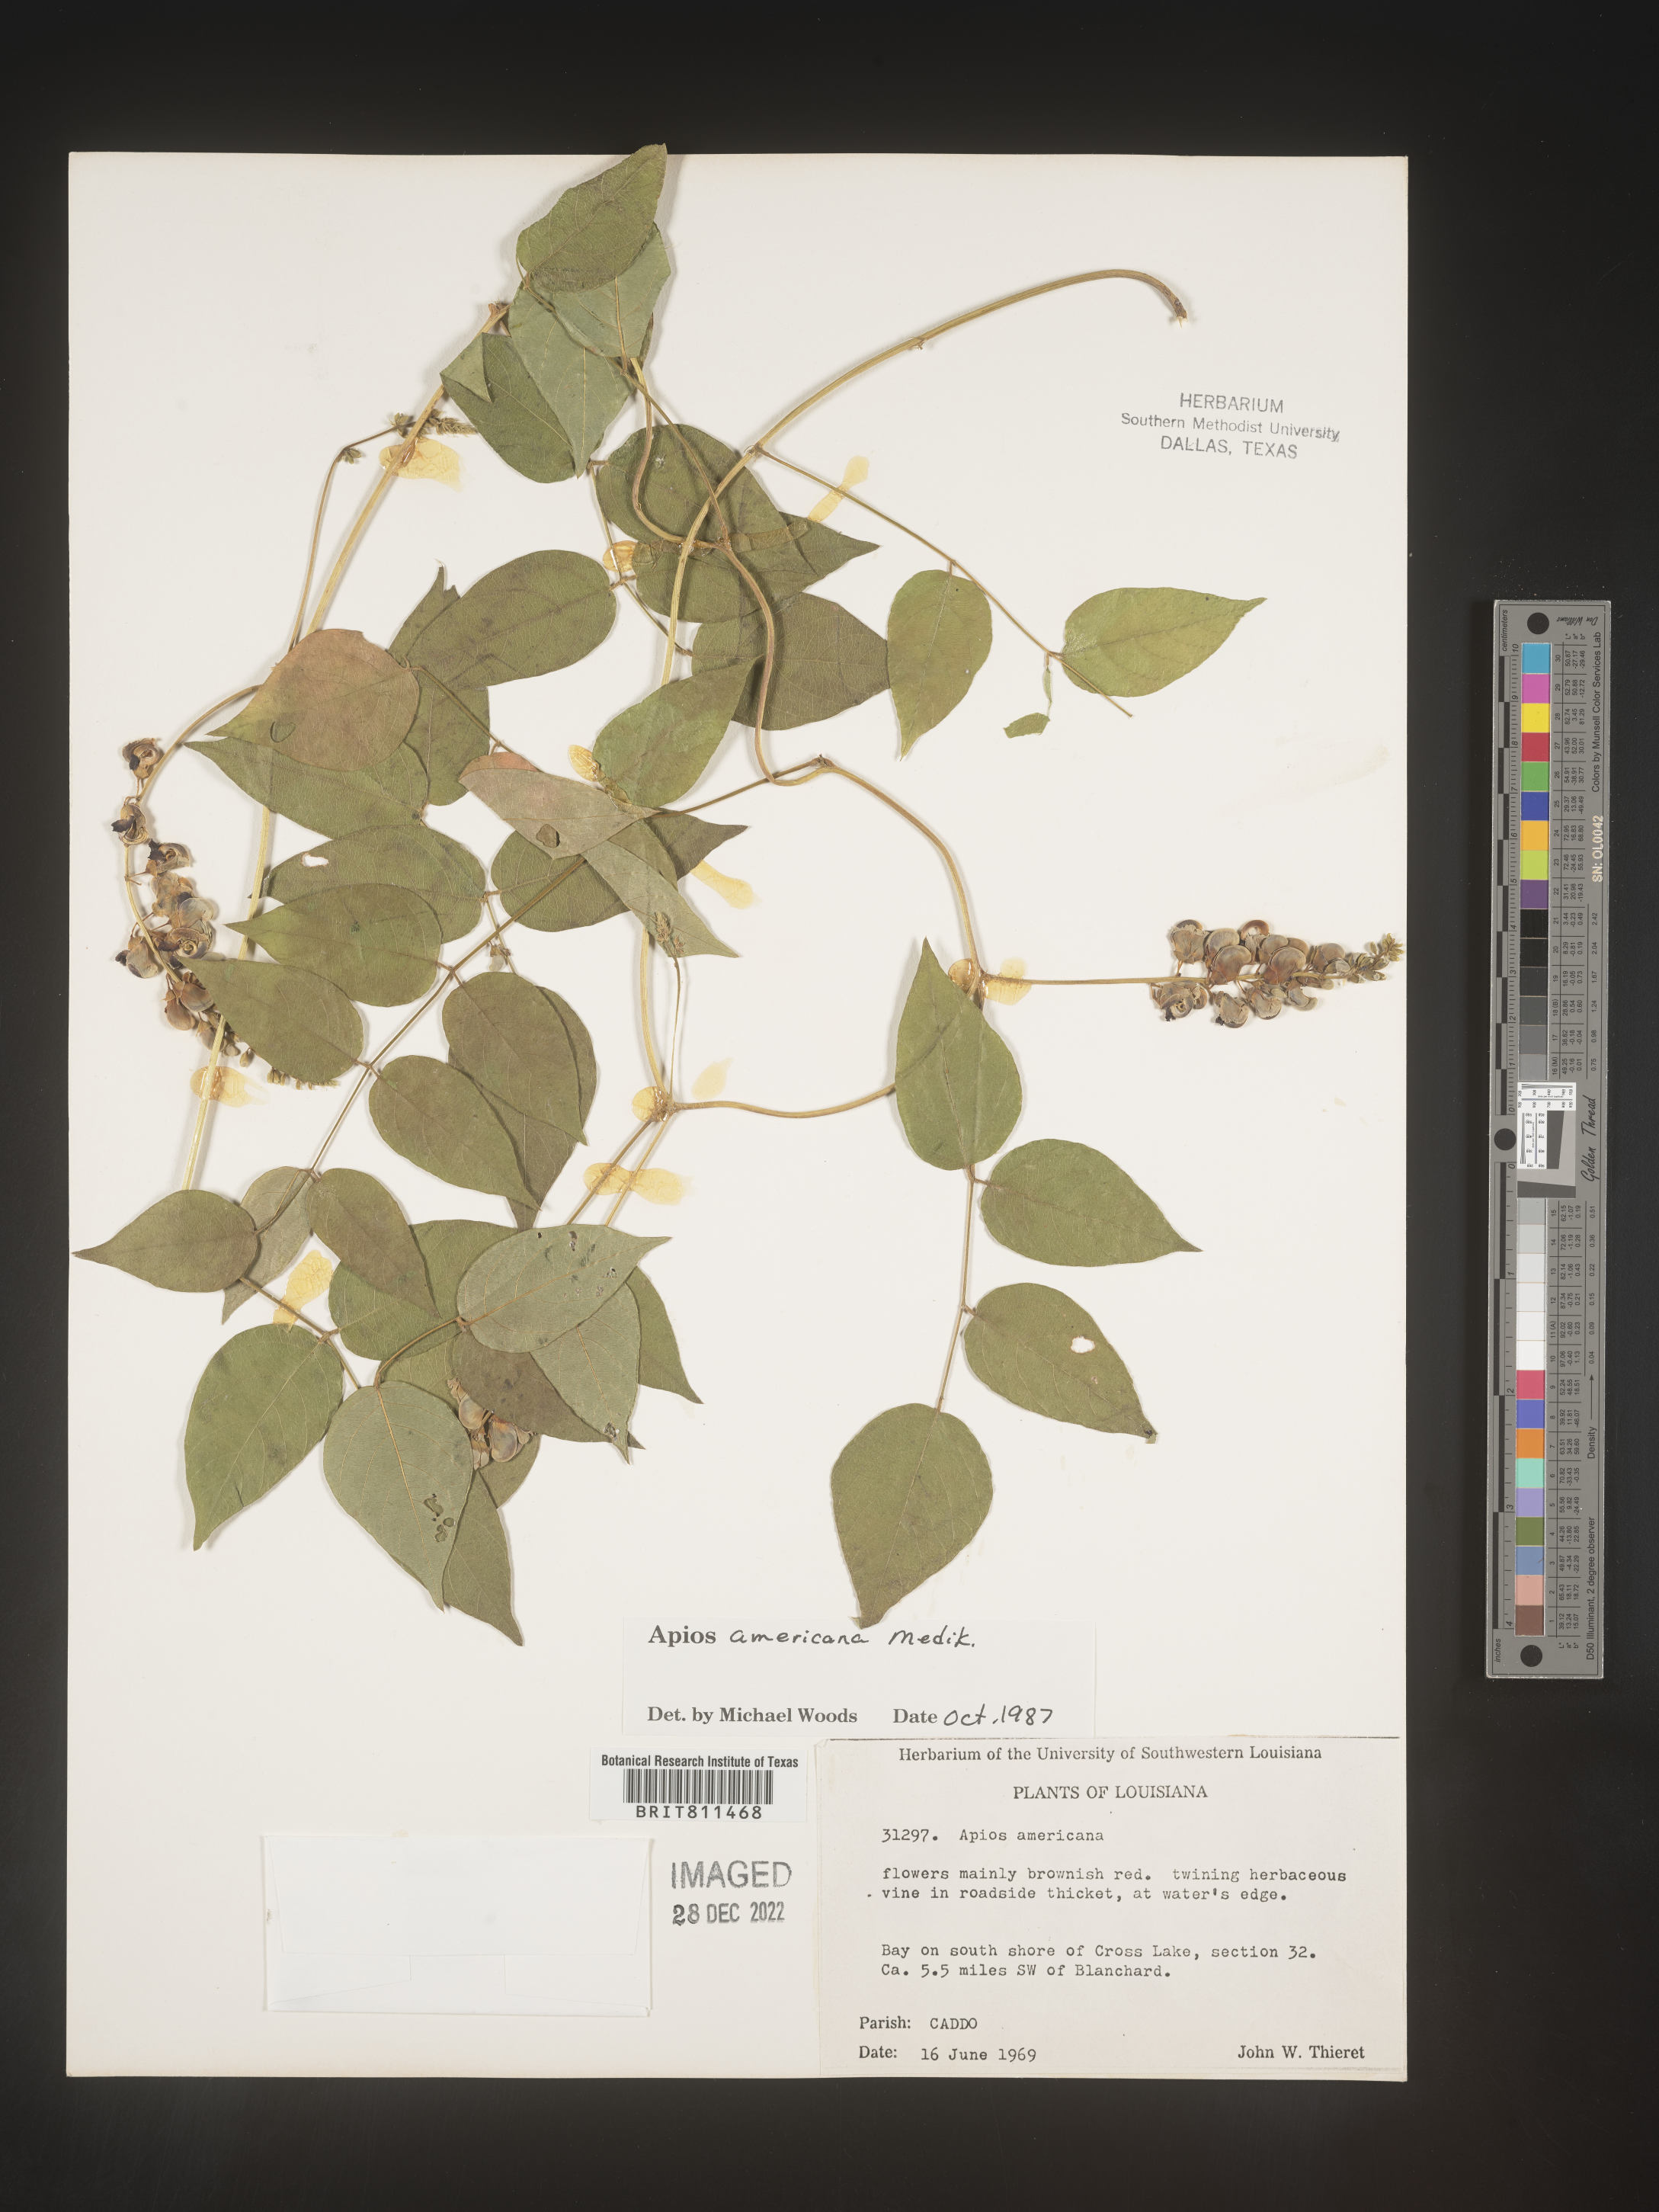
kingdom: Plantae
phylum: Tracheophyta
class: Magnoliopsida
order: Fabales
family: Fabaceae
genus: Apios
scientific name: Apios americana
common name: American potato-bean
